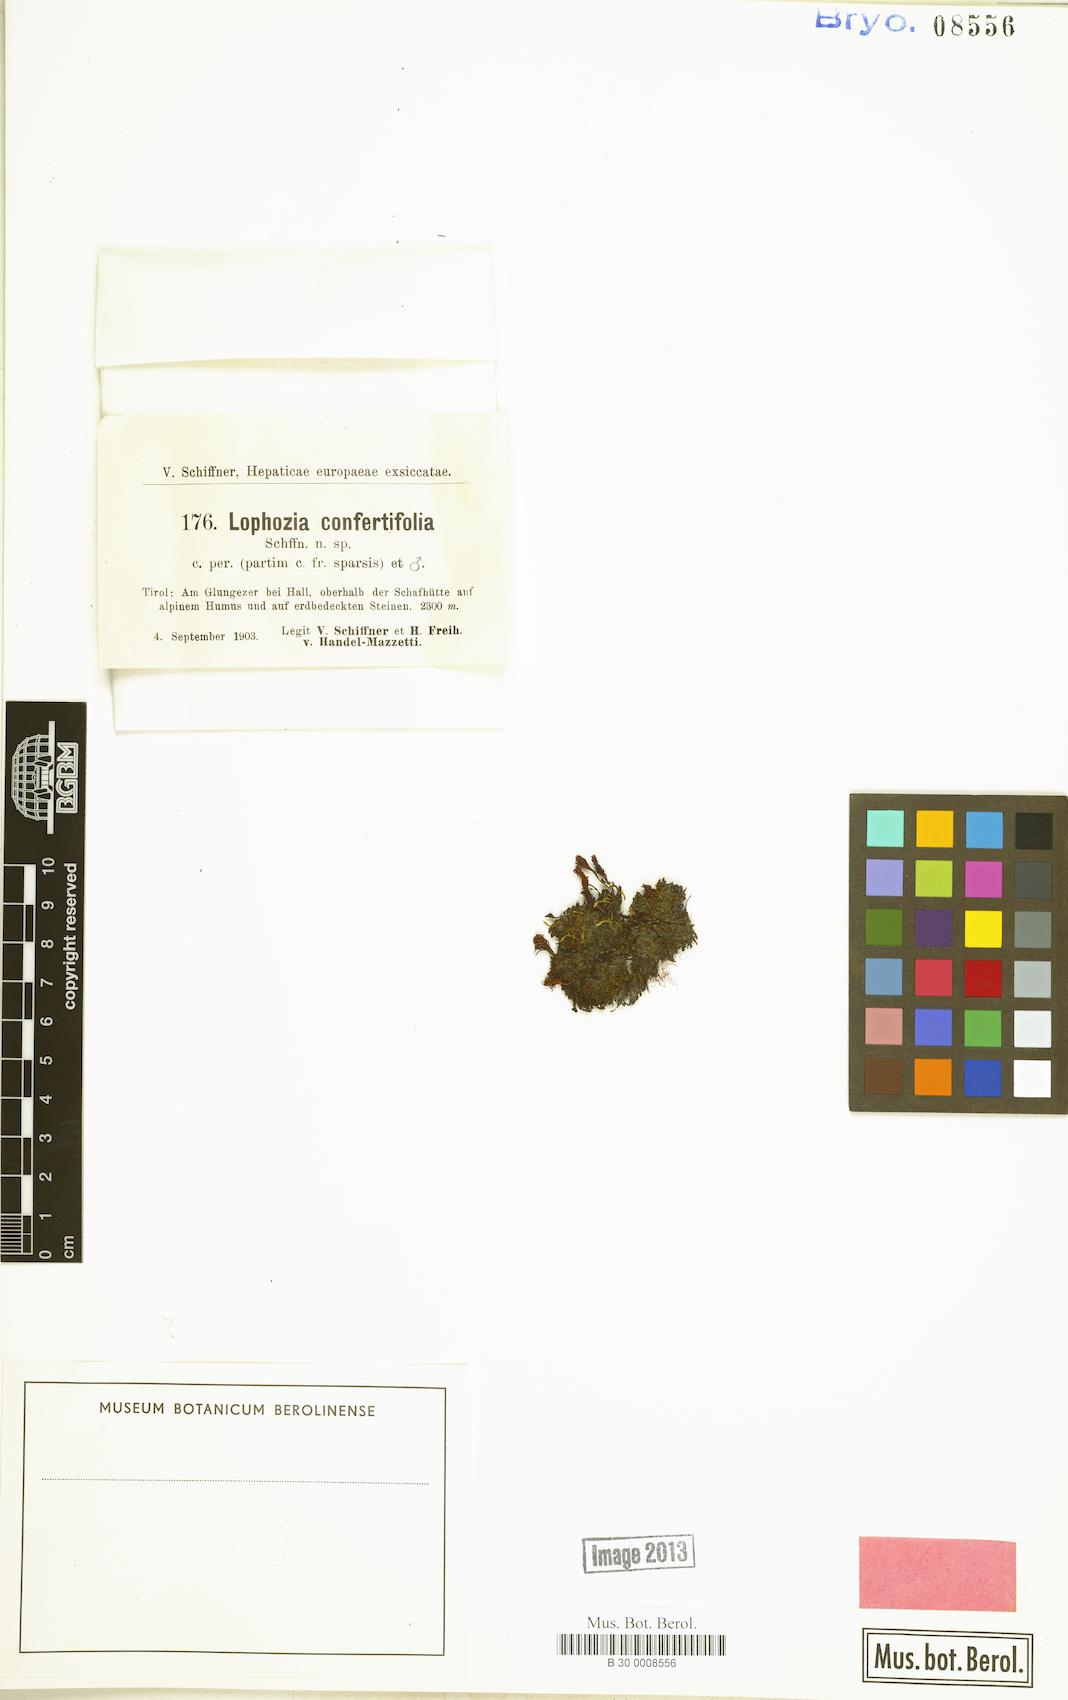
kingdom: Plantae
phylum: Marchantiophyta
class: Jungermanniopsida
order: Jungermanniales
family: Lophoziaceae
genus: Lophozia
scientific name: Lophozia murmanica
